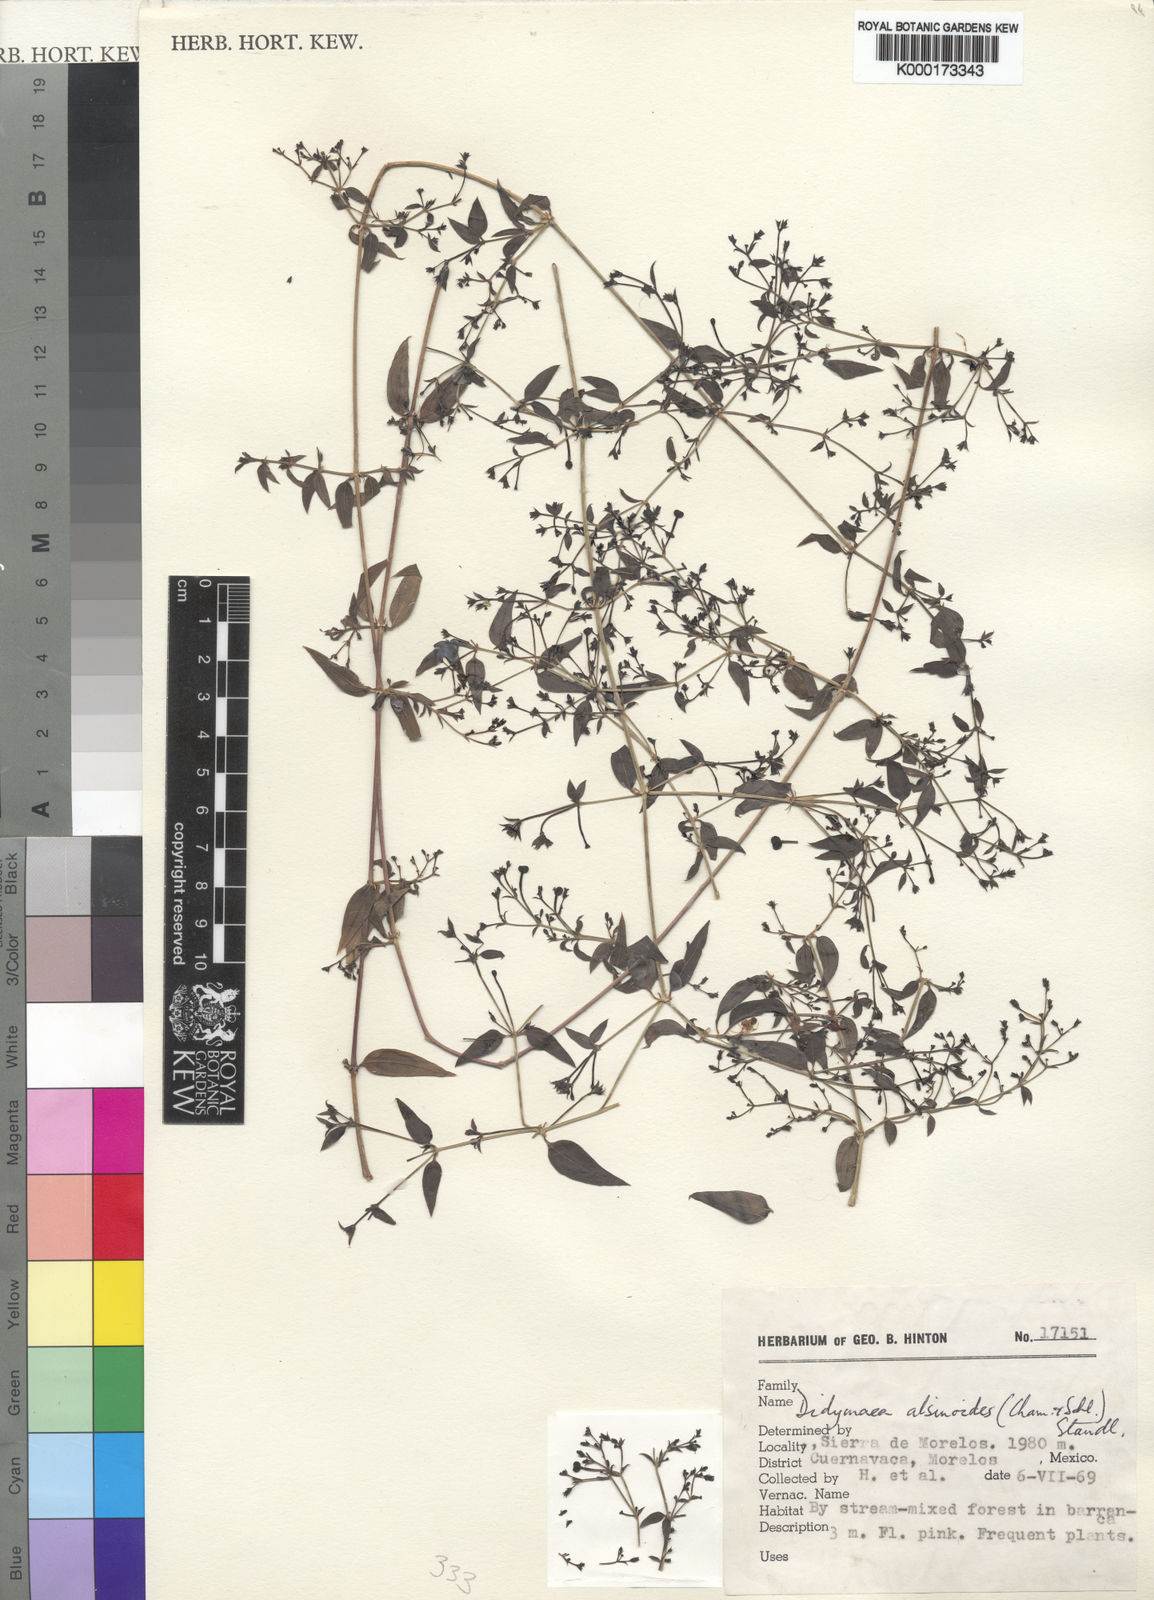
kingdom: Plantae
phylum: Tracheophyta
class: Magnoliopsida
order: Gentianales
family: Rubiaceae
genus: Didymaea
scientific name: Didymaea alsinoides
